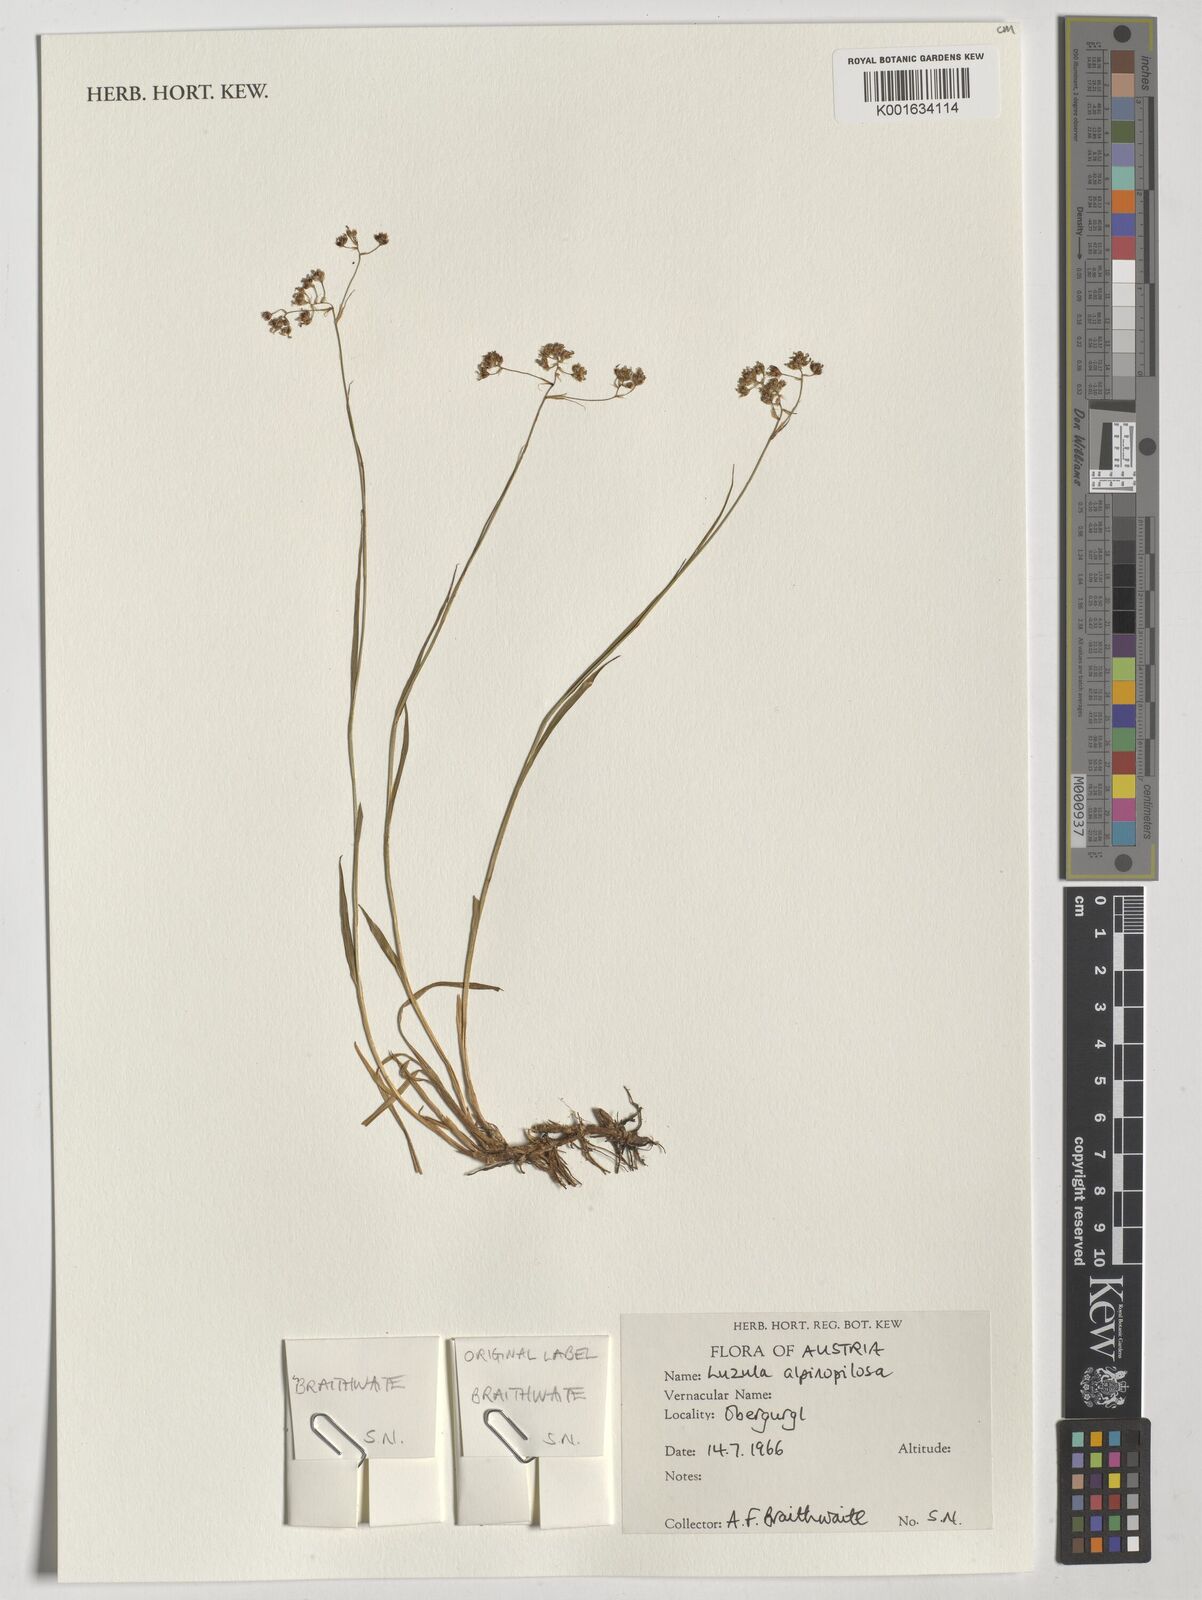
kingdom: Plantae
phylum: Tracheophyta
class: Liliopsida
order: Poales
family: Juncaceae
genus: Luzula
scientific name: Luzula alpinopilosa
